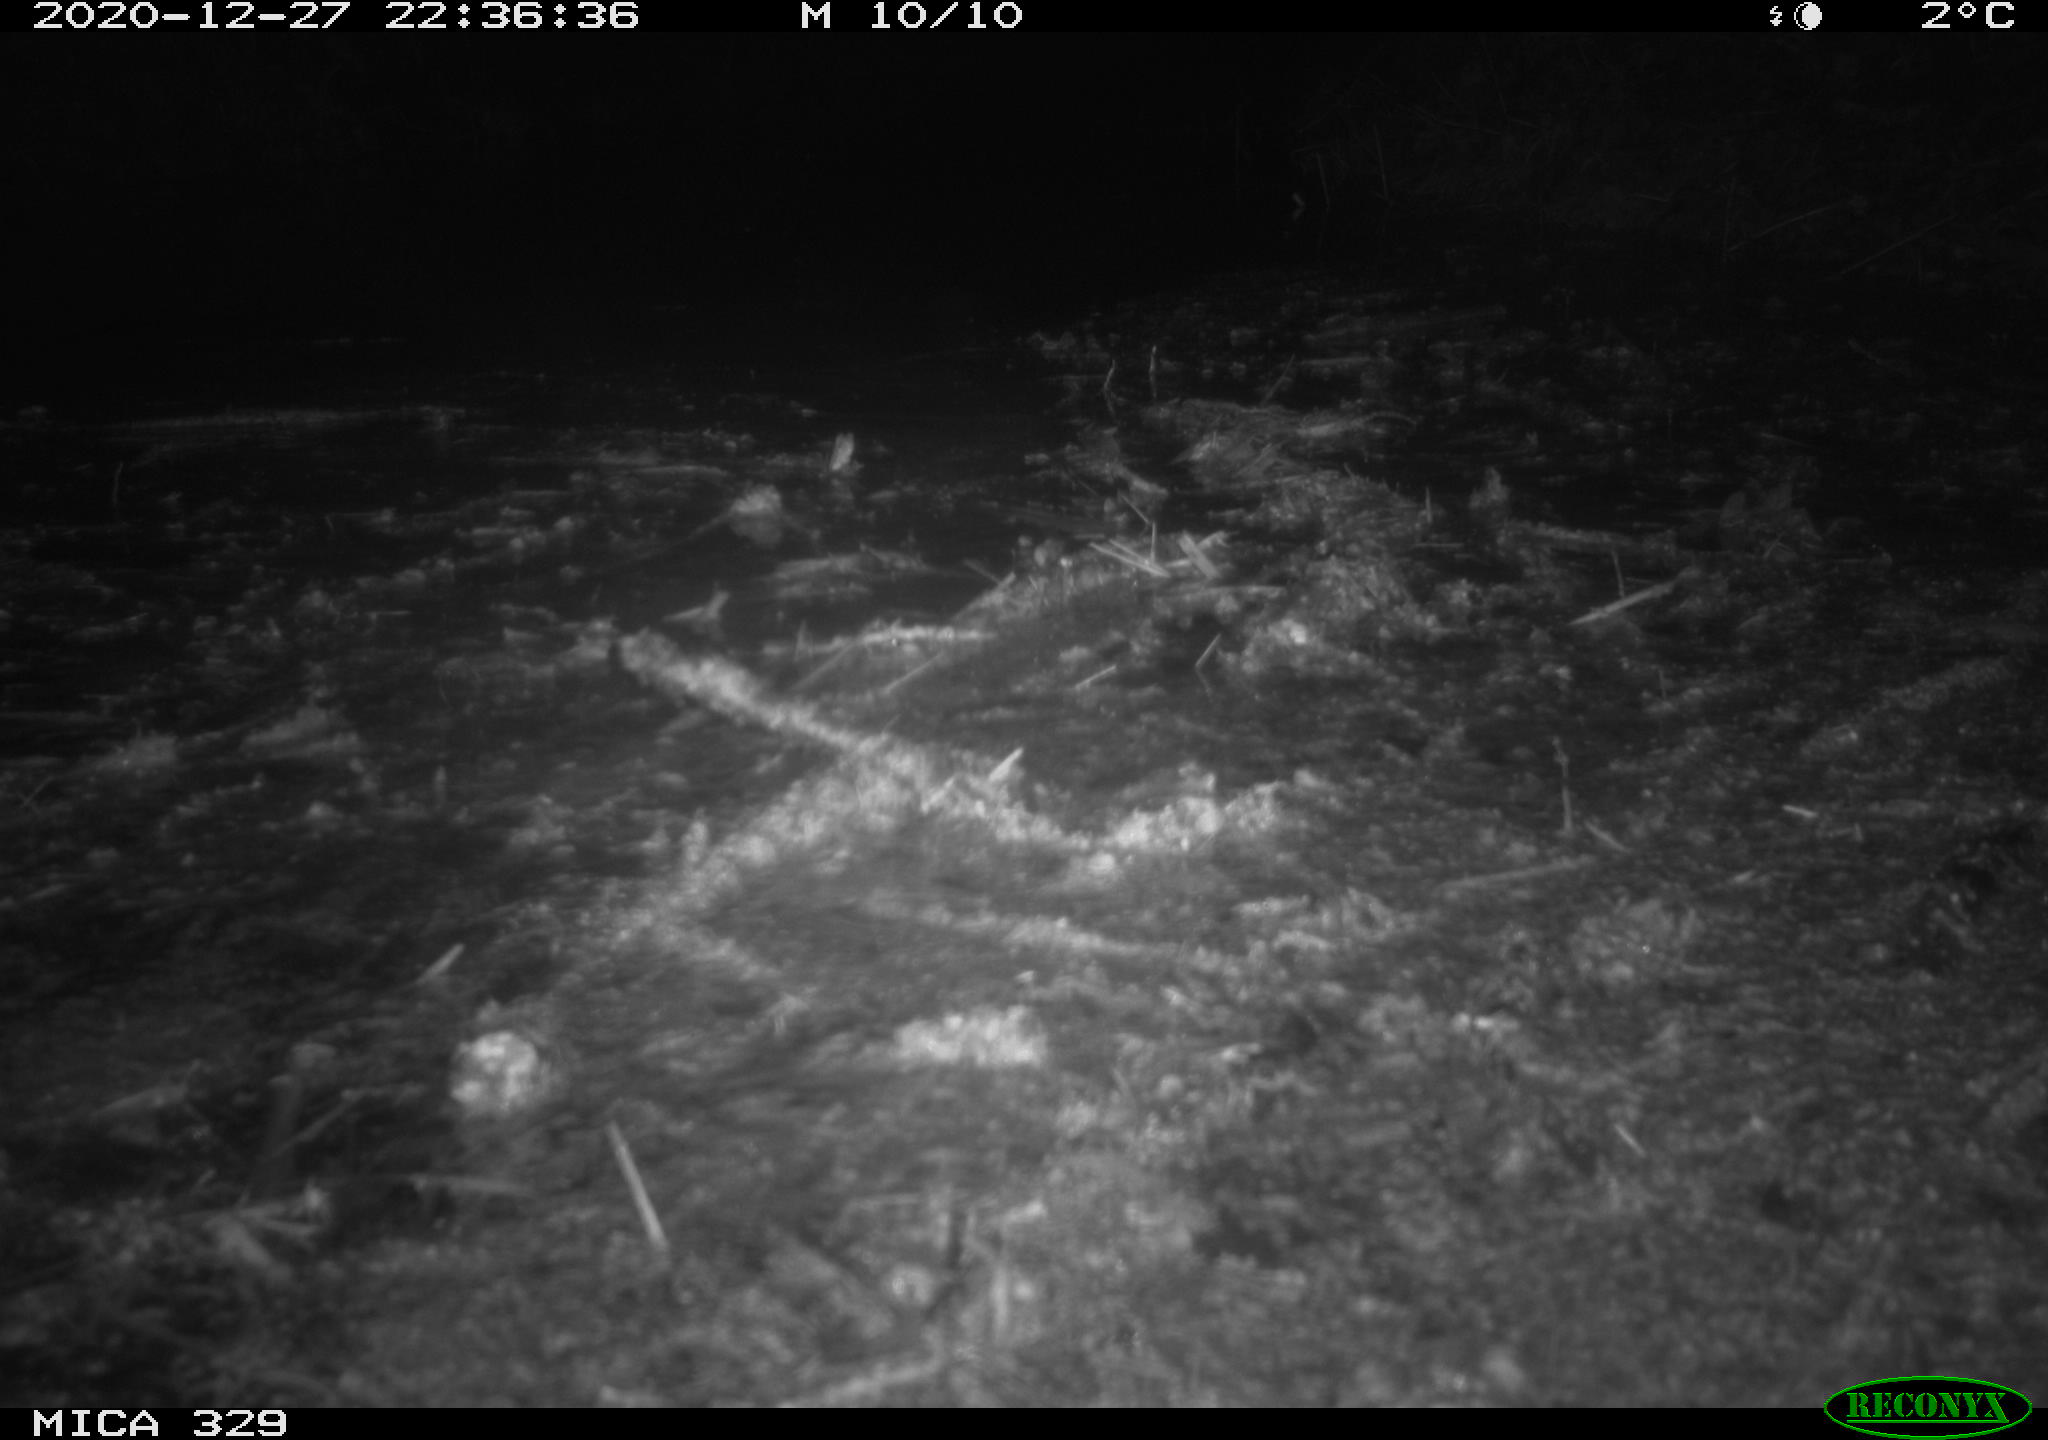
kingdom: Animalia
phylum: Chordata
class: Mammalia
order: Rodentia
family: Myocastoridae
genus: Myocastor
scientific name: Myocastor coypus
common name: Coypu
